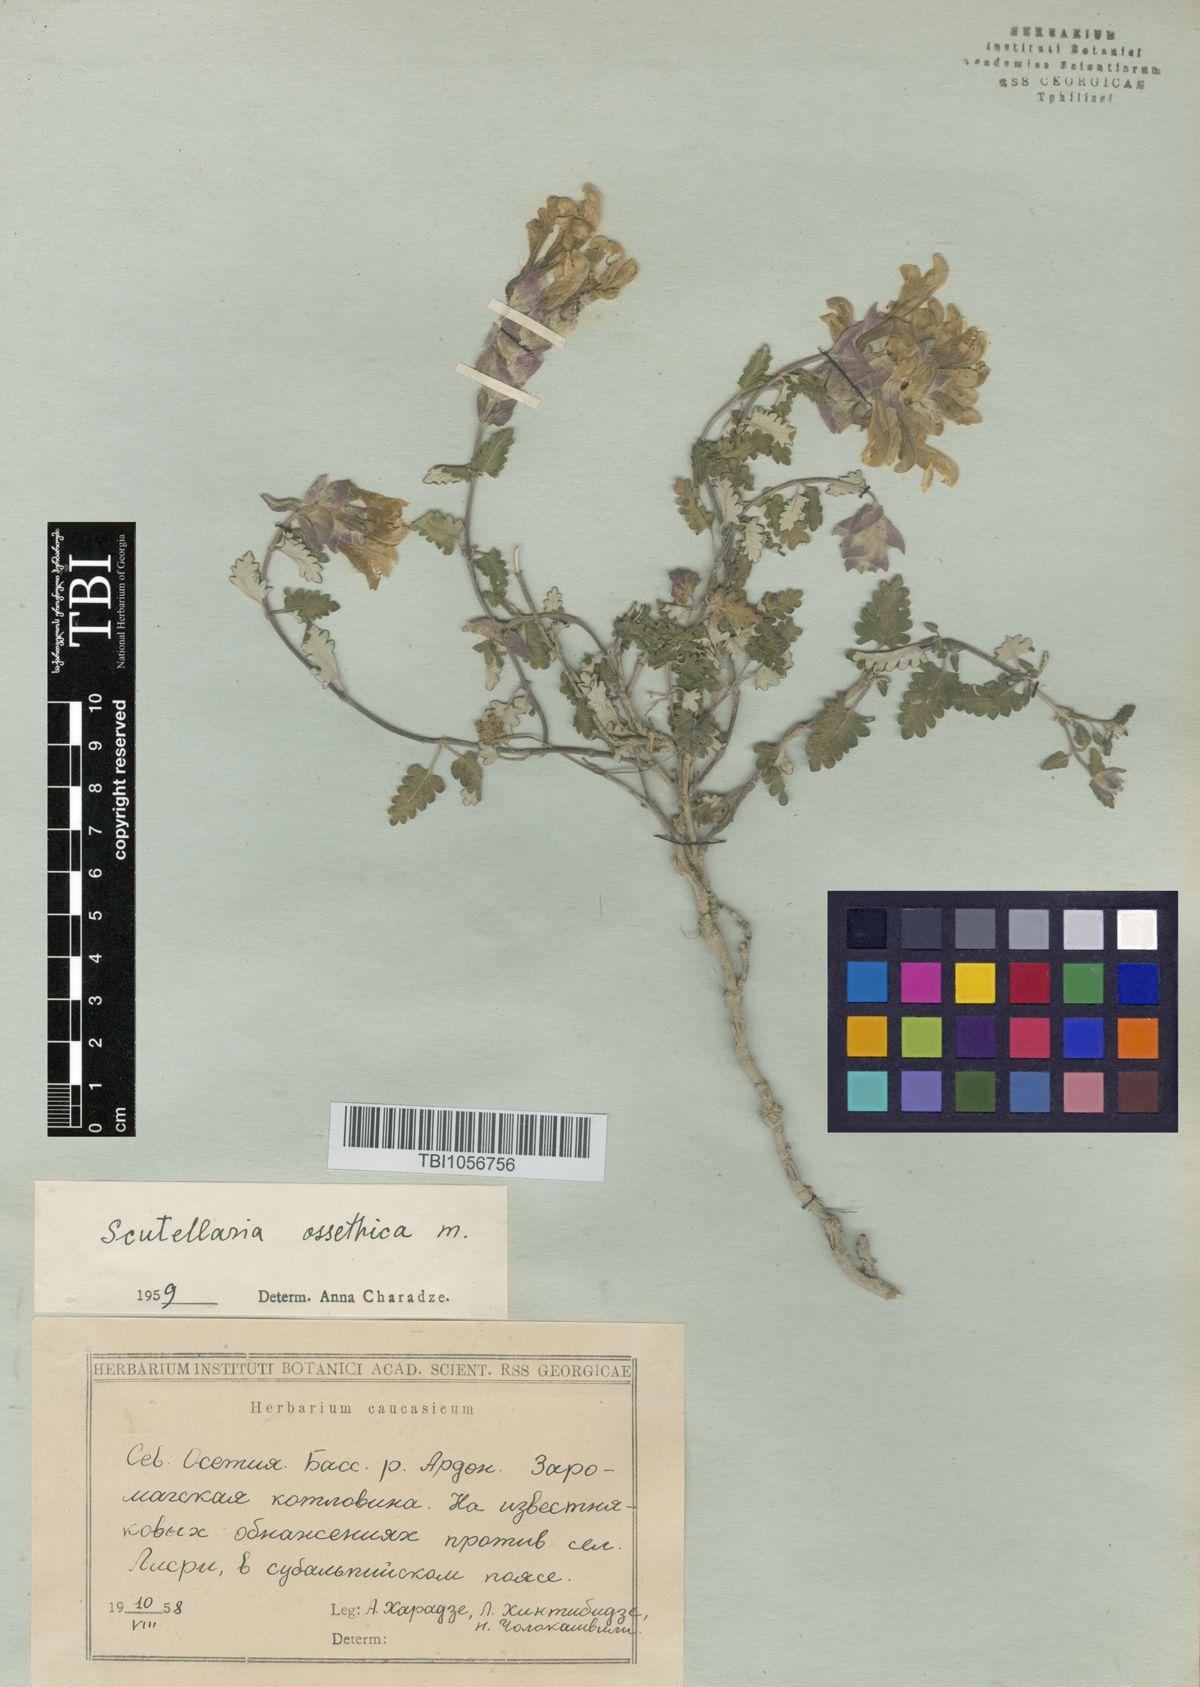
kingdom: Plantae
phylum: Tracheophyta
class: Magnoliopsida
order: Lamiales
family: Lamiaceae
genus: Scutellaria
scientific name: Scutellaria ossethica
